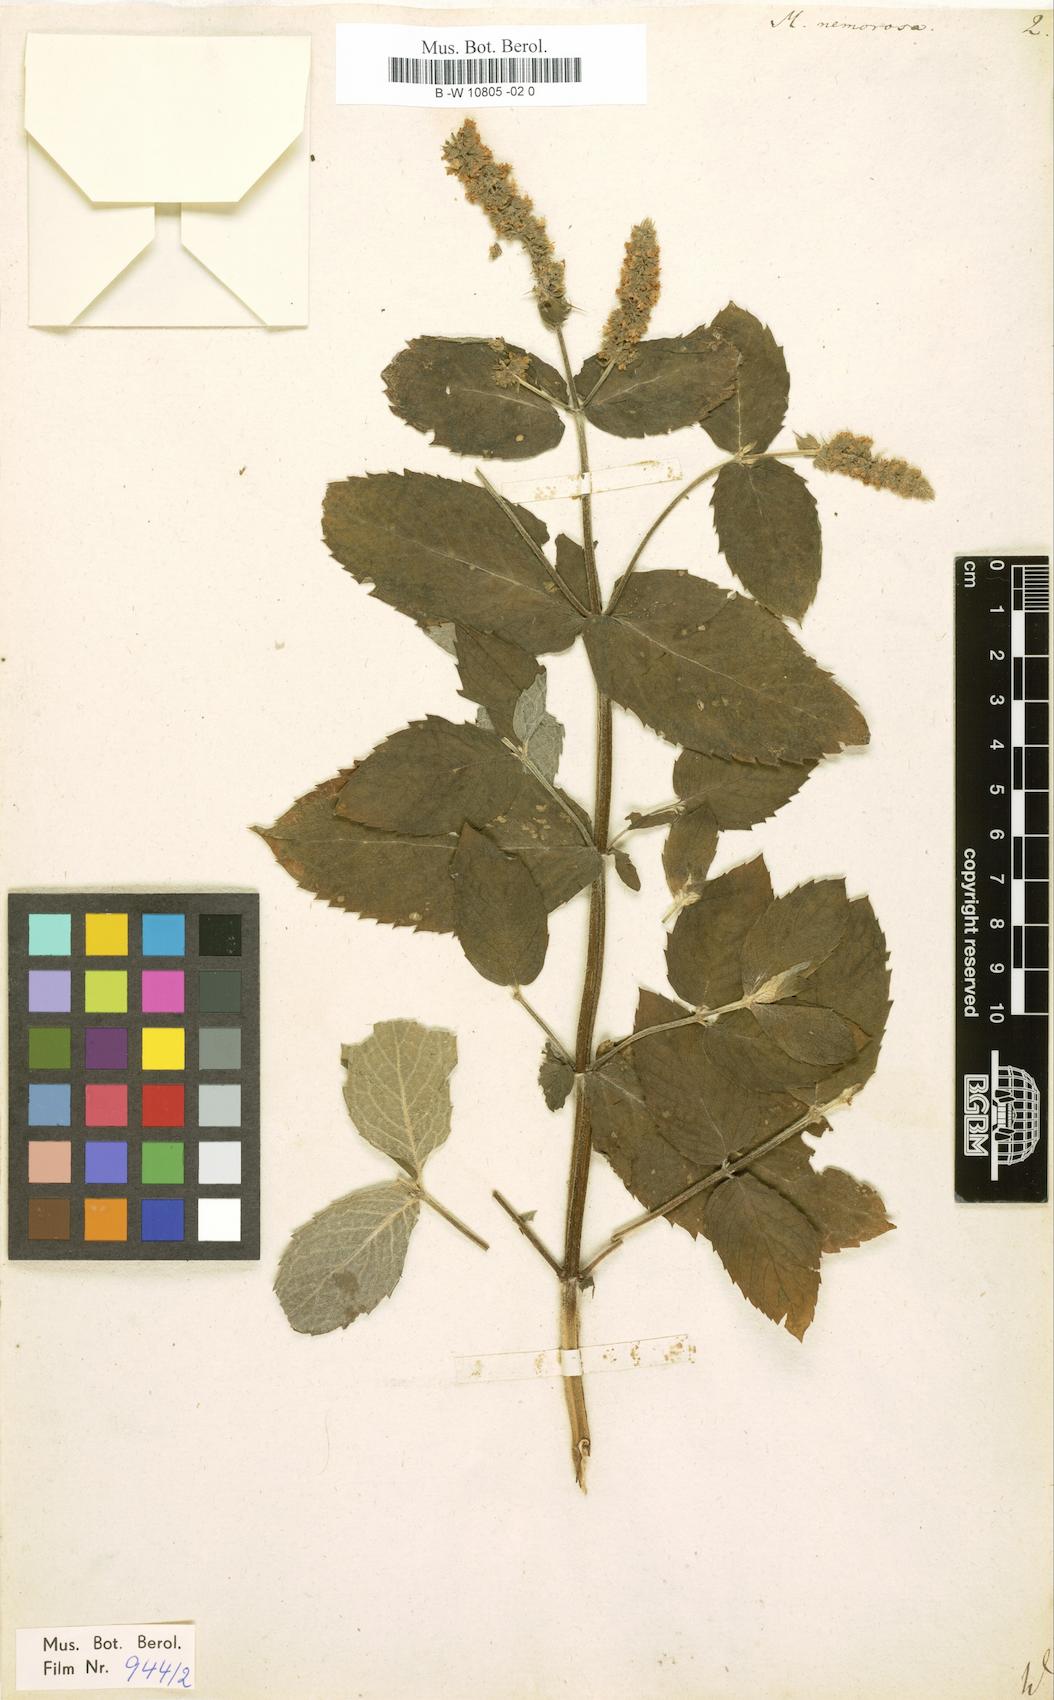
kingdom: Plantae
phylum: Tracheophyta
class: Magnoliopsida
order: Lamiales
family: Lamiaceae
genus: Mentha
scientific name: Mentha
